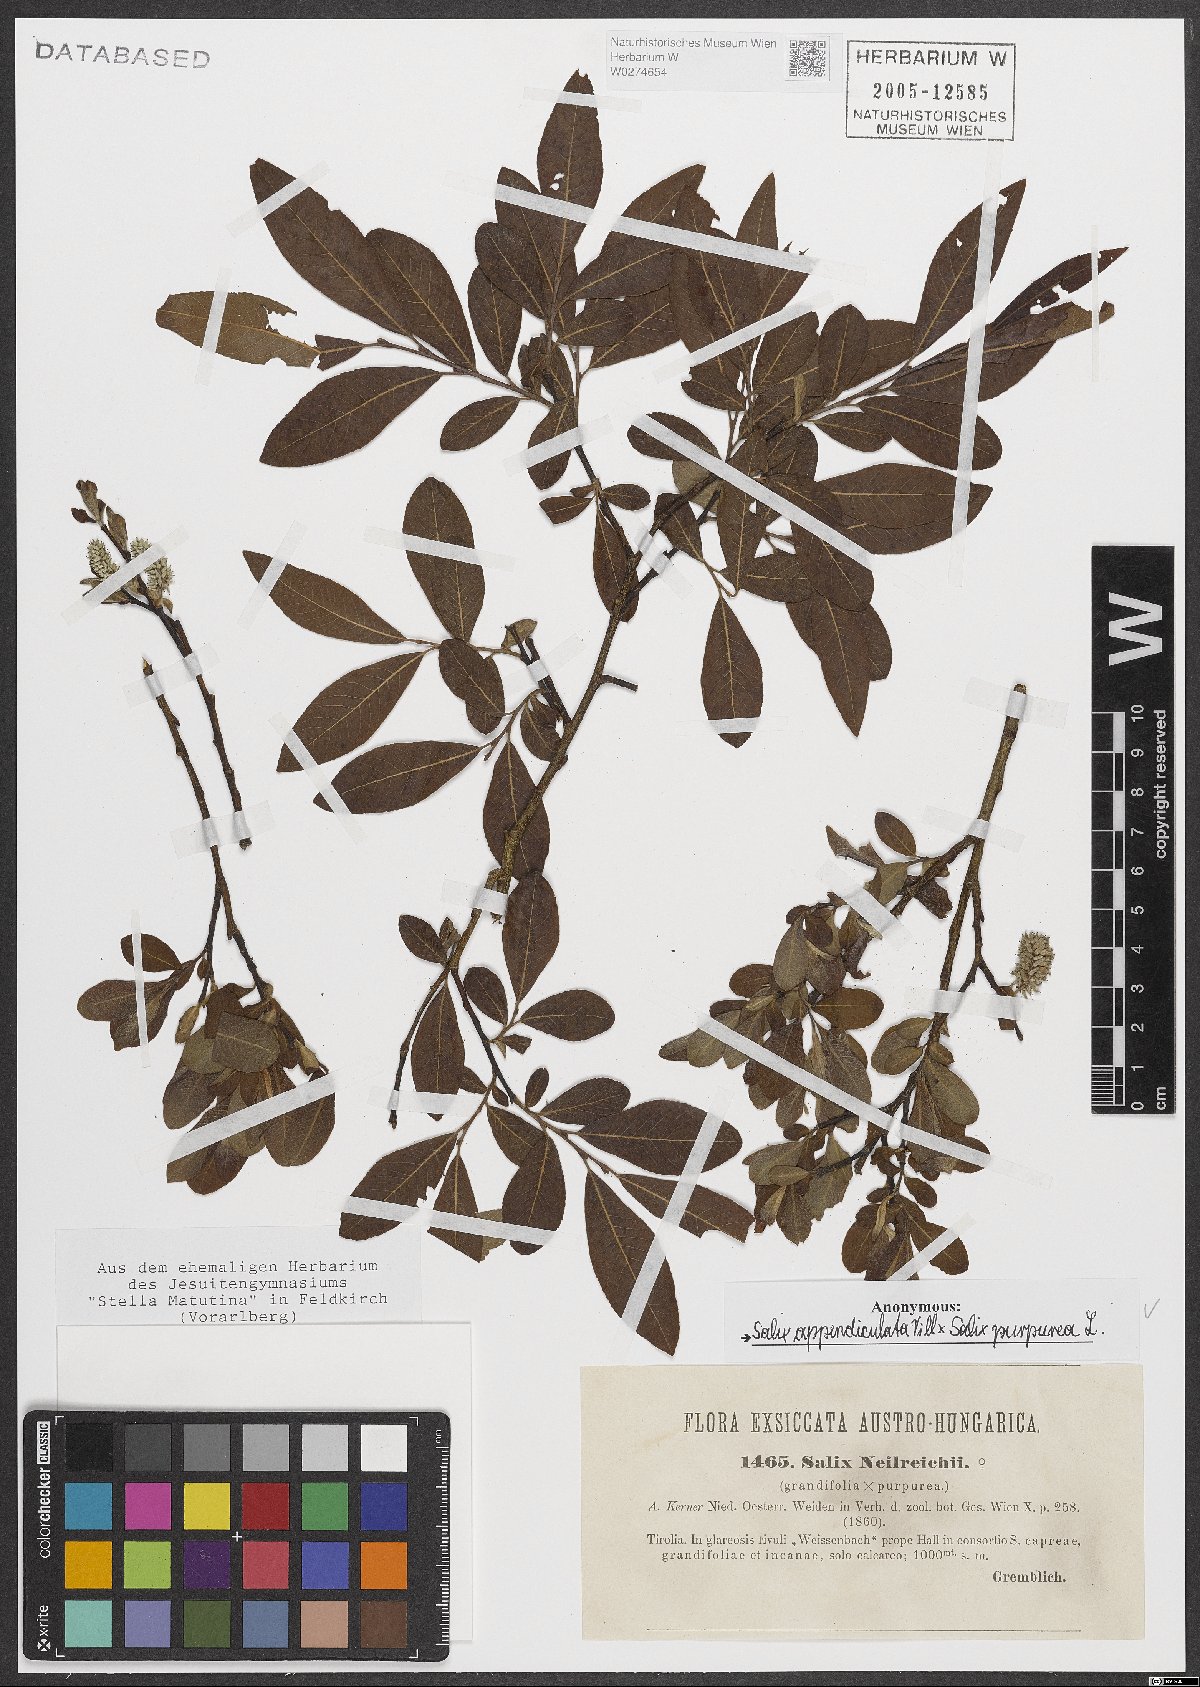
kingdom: Plantae
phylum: Tracheophyta
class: Magnoliopsida
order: Malpighiales
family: Salicaceae
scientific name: Salicaceae
